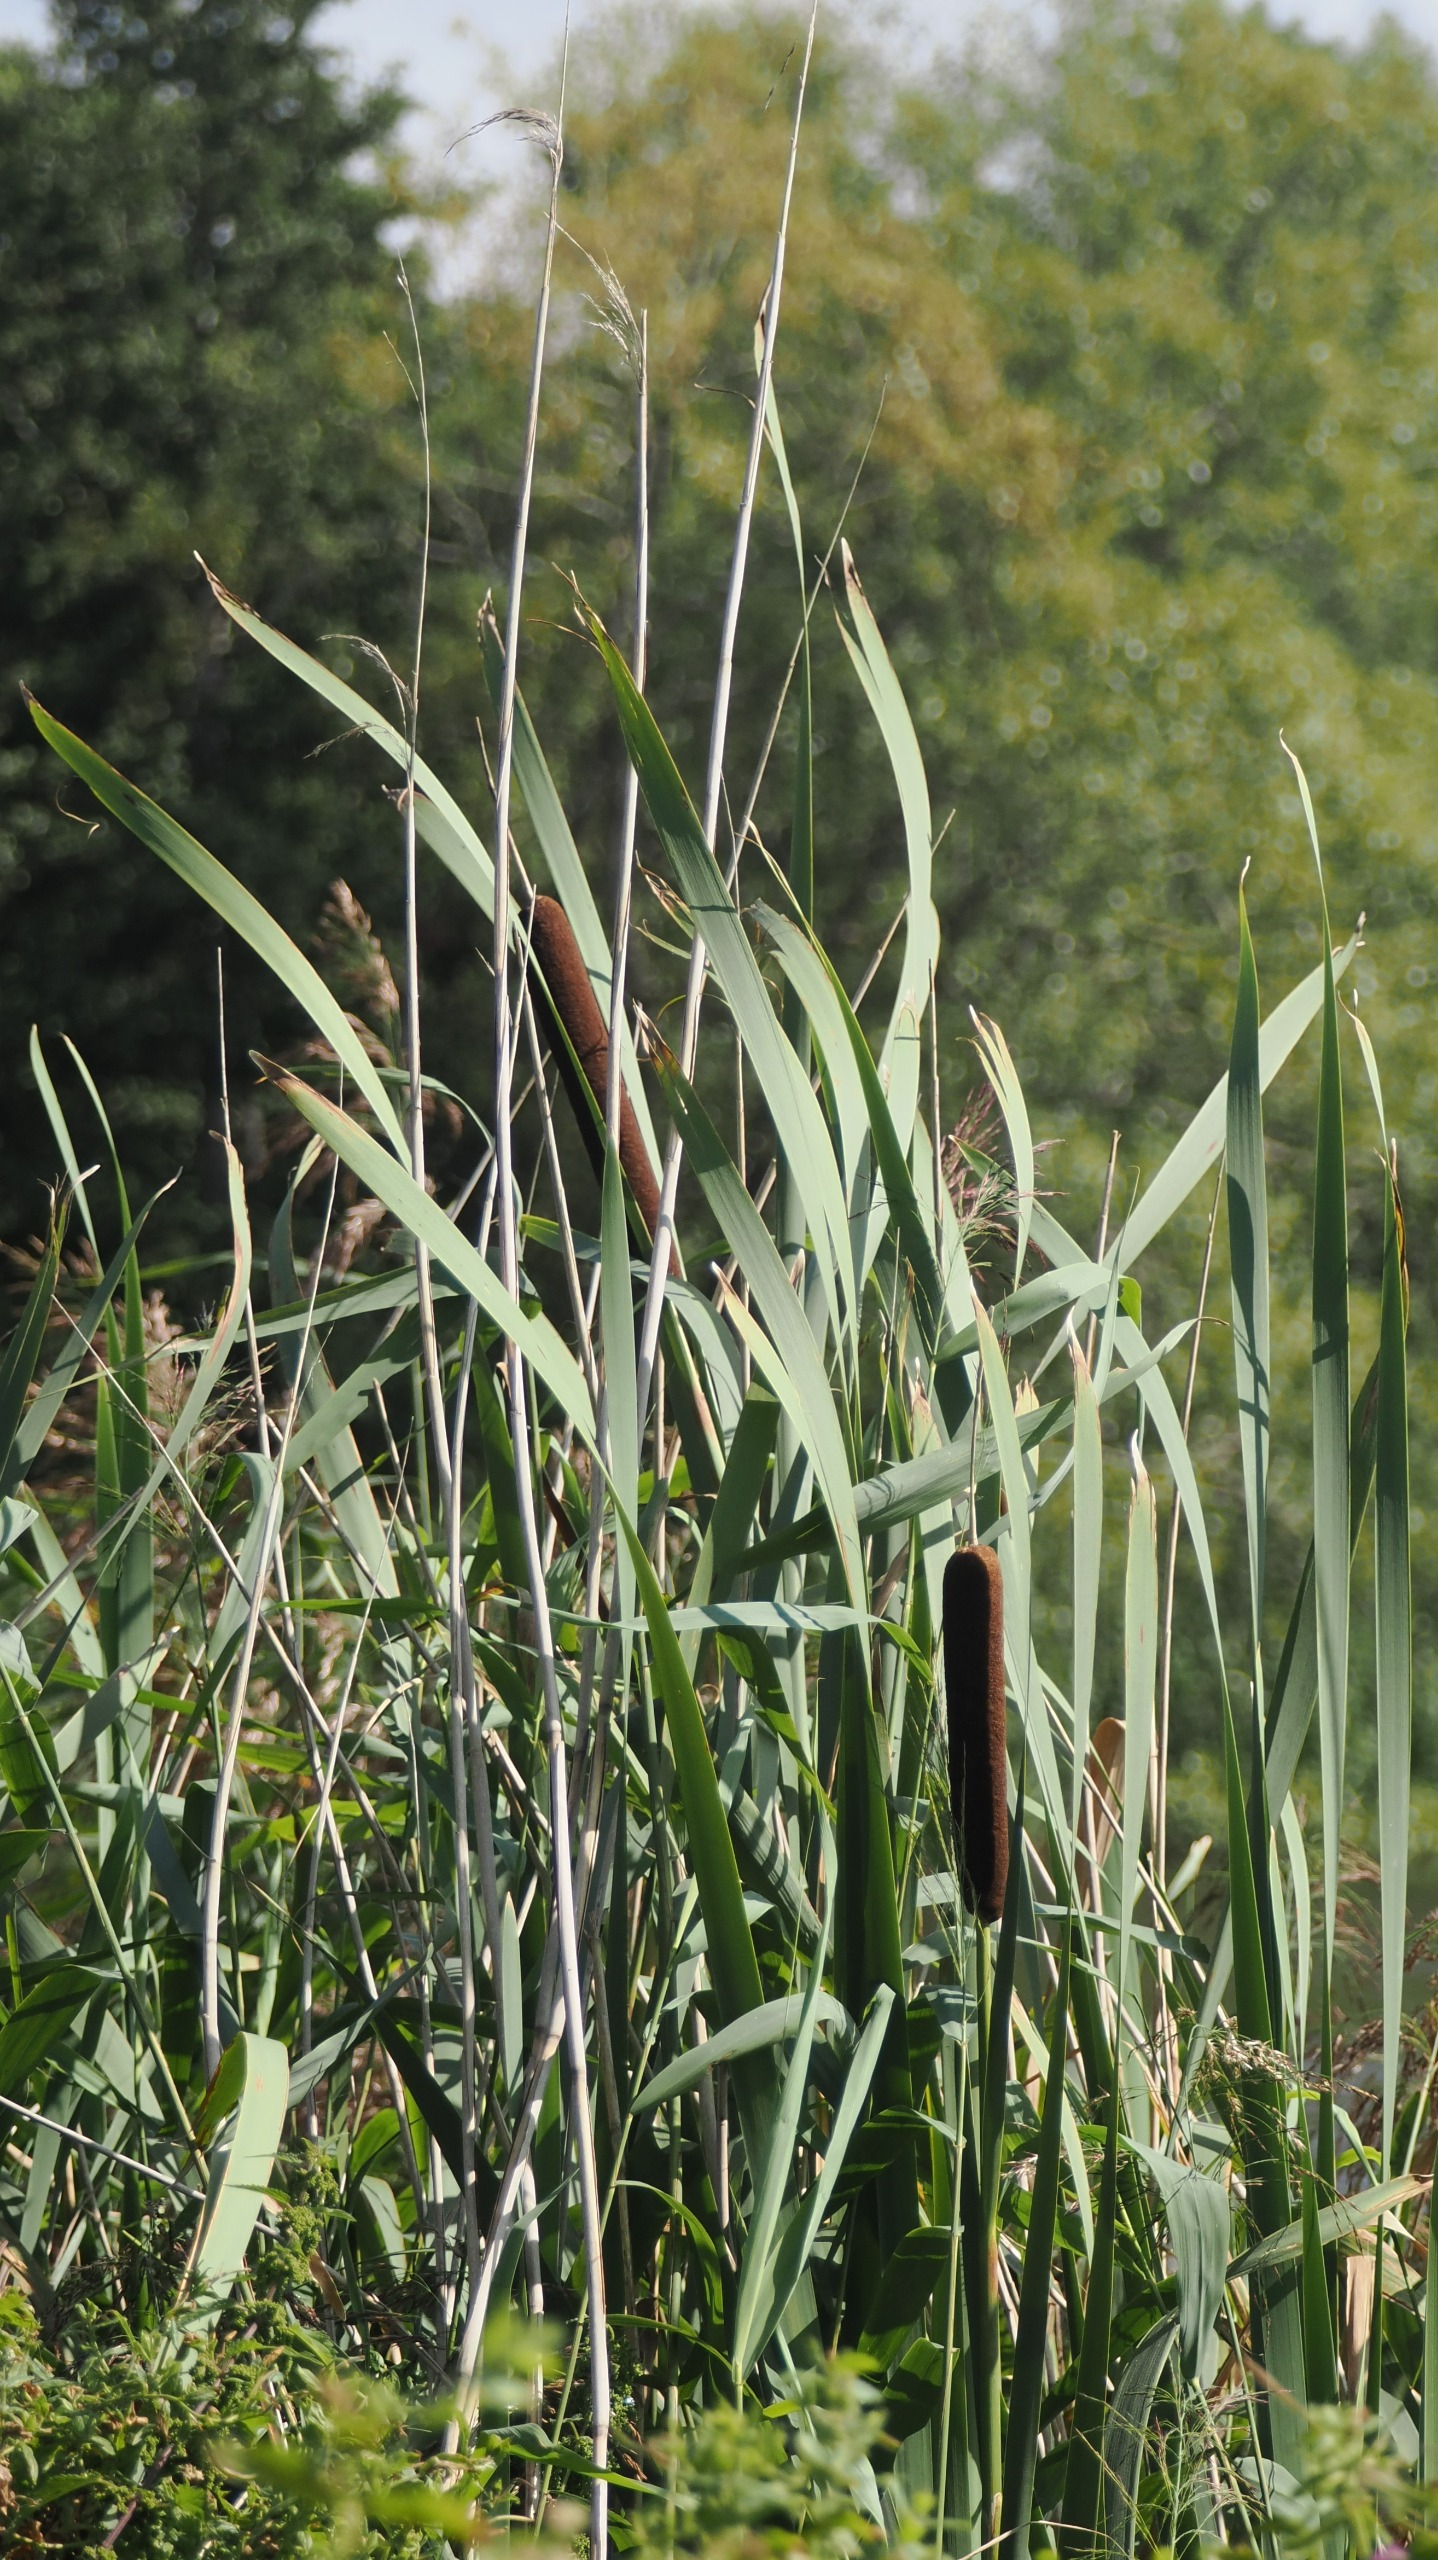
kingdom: Plantae
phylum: Tracheophyta
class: Liliopsida
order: Poales
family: Typhaceae
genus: Typha
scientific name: Typha latifolia
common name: Bredbladet dunhammer
